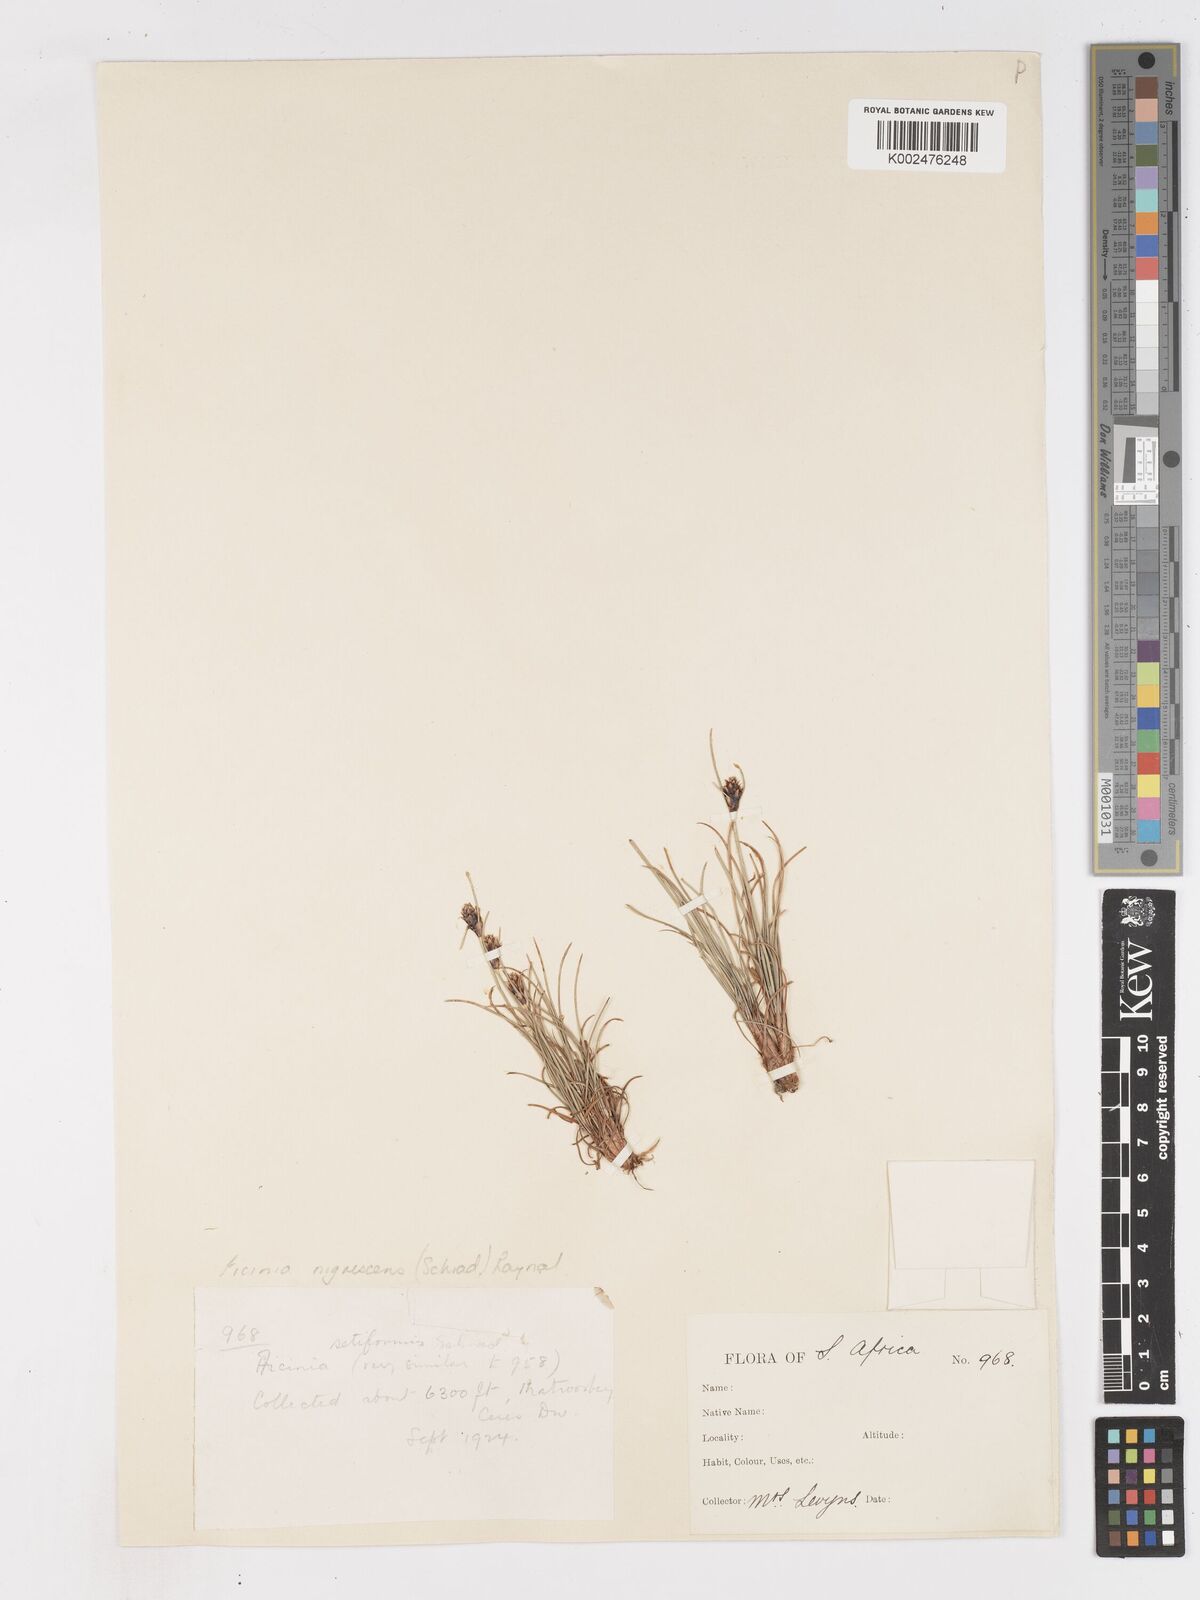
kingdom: Plantae
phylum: Tracheophyta
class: Liliopsida
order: Poales
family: Cyperaceae
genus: Ficinia
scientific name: Ficinia nigrescens
